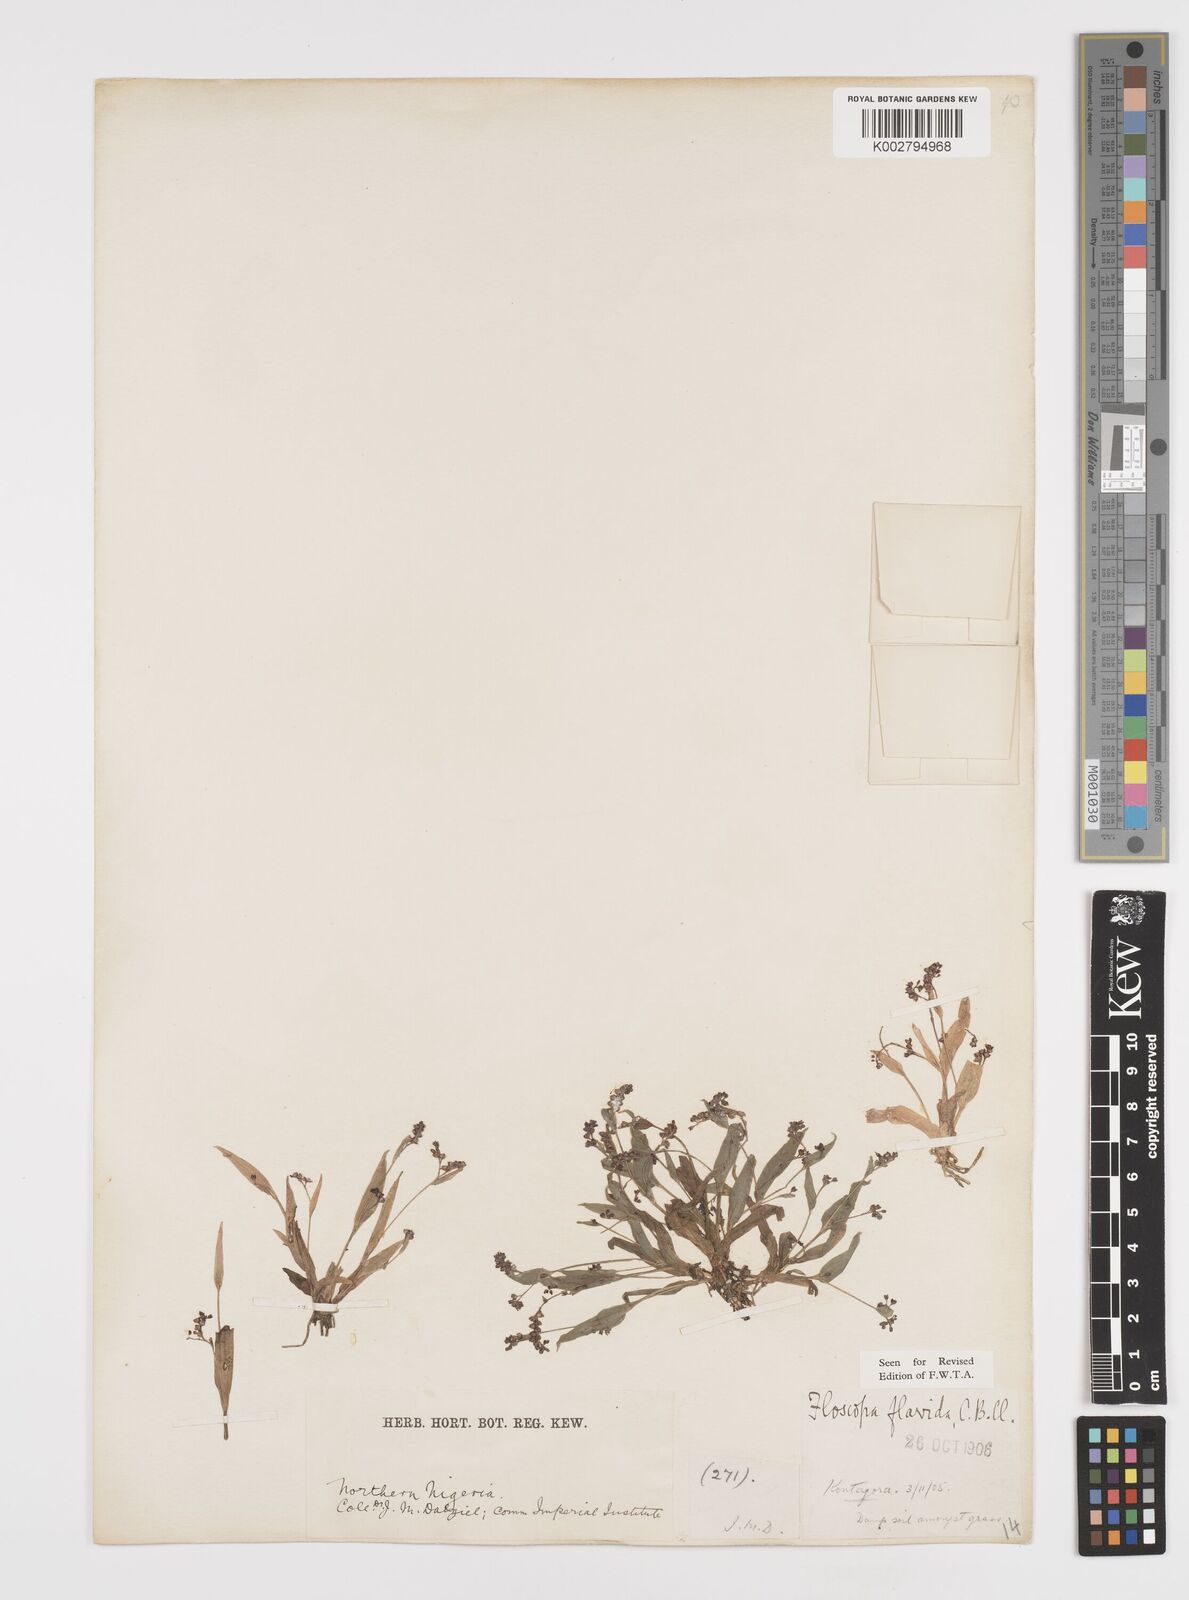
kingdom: Plantae
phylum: Tracheophyta
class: Liliopsida
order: Commelinales
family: Commelinaceae
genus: Floscopa
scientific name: Floscopa flavida
